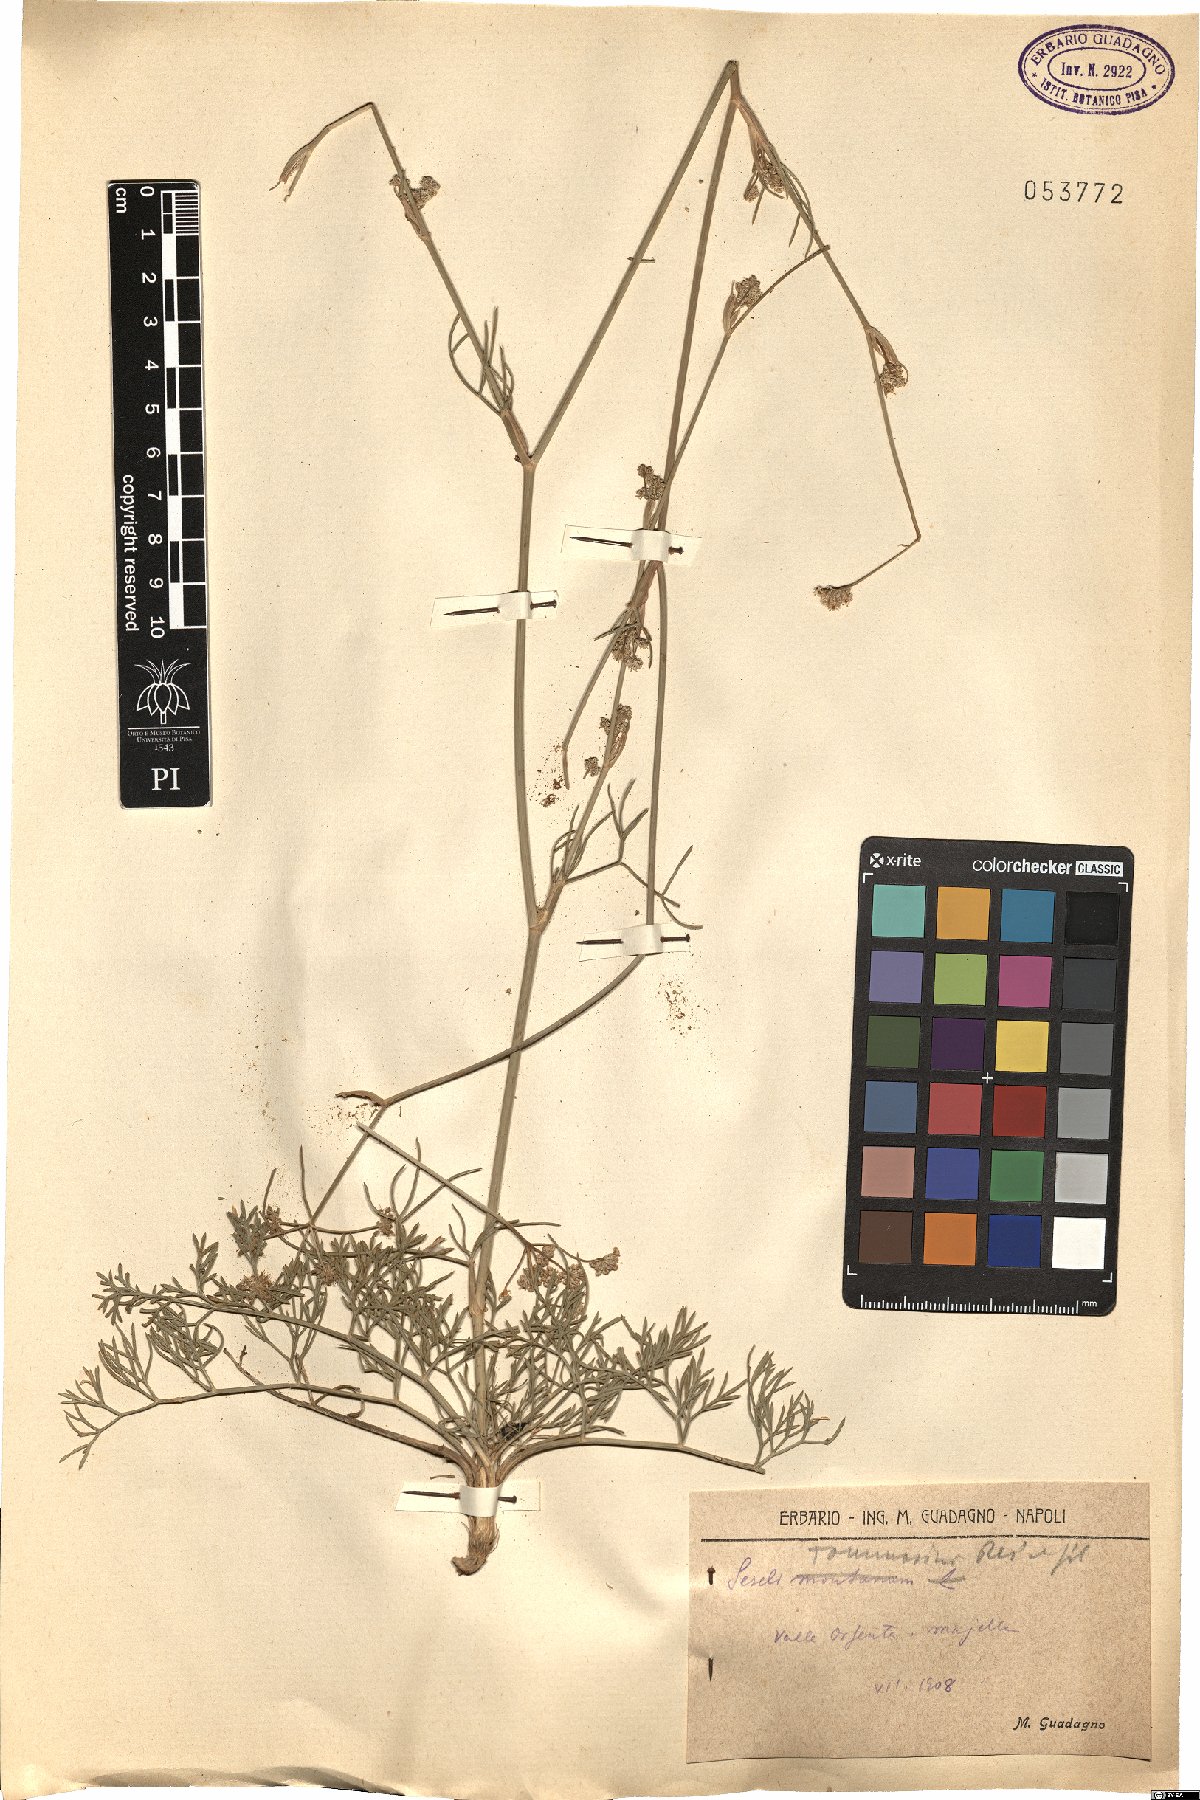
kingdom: Plantae
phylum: Tracheophyta
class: Magnoliopsida
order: Apiales
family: Apiaceae
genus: Seseli
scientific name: Seseli montanum
